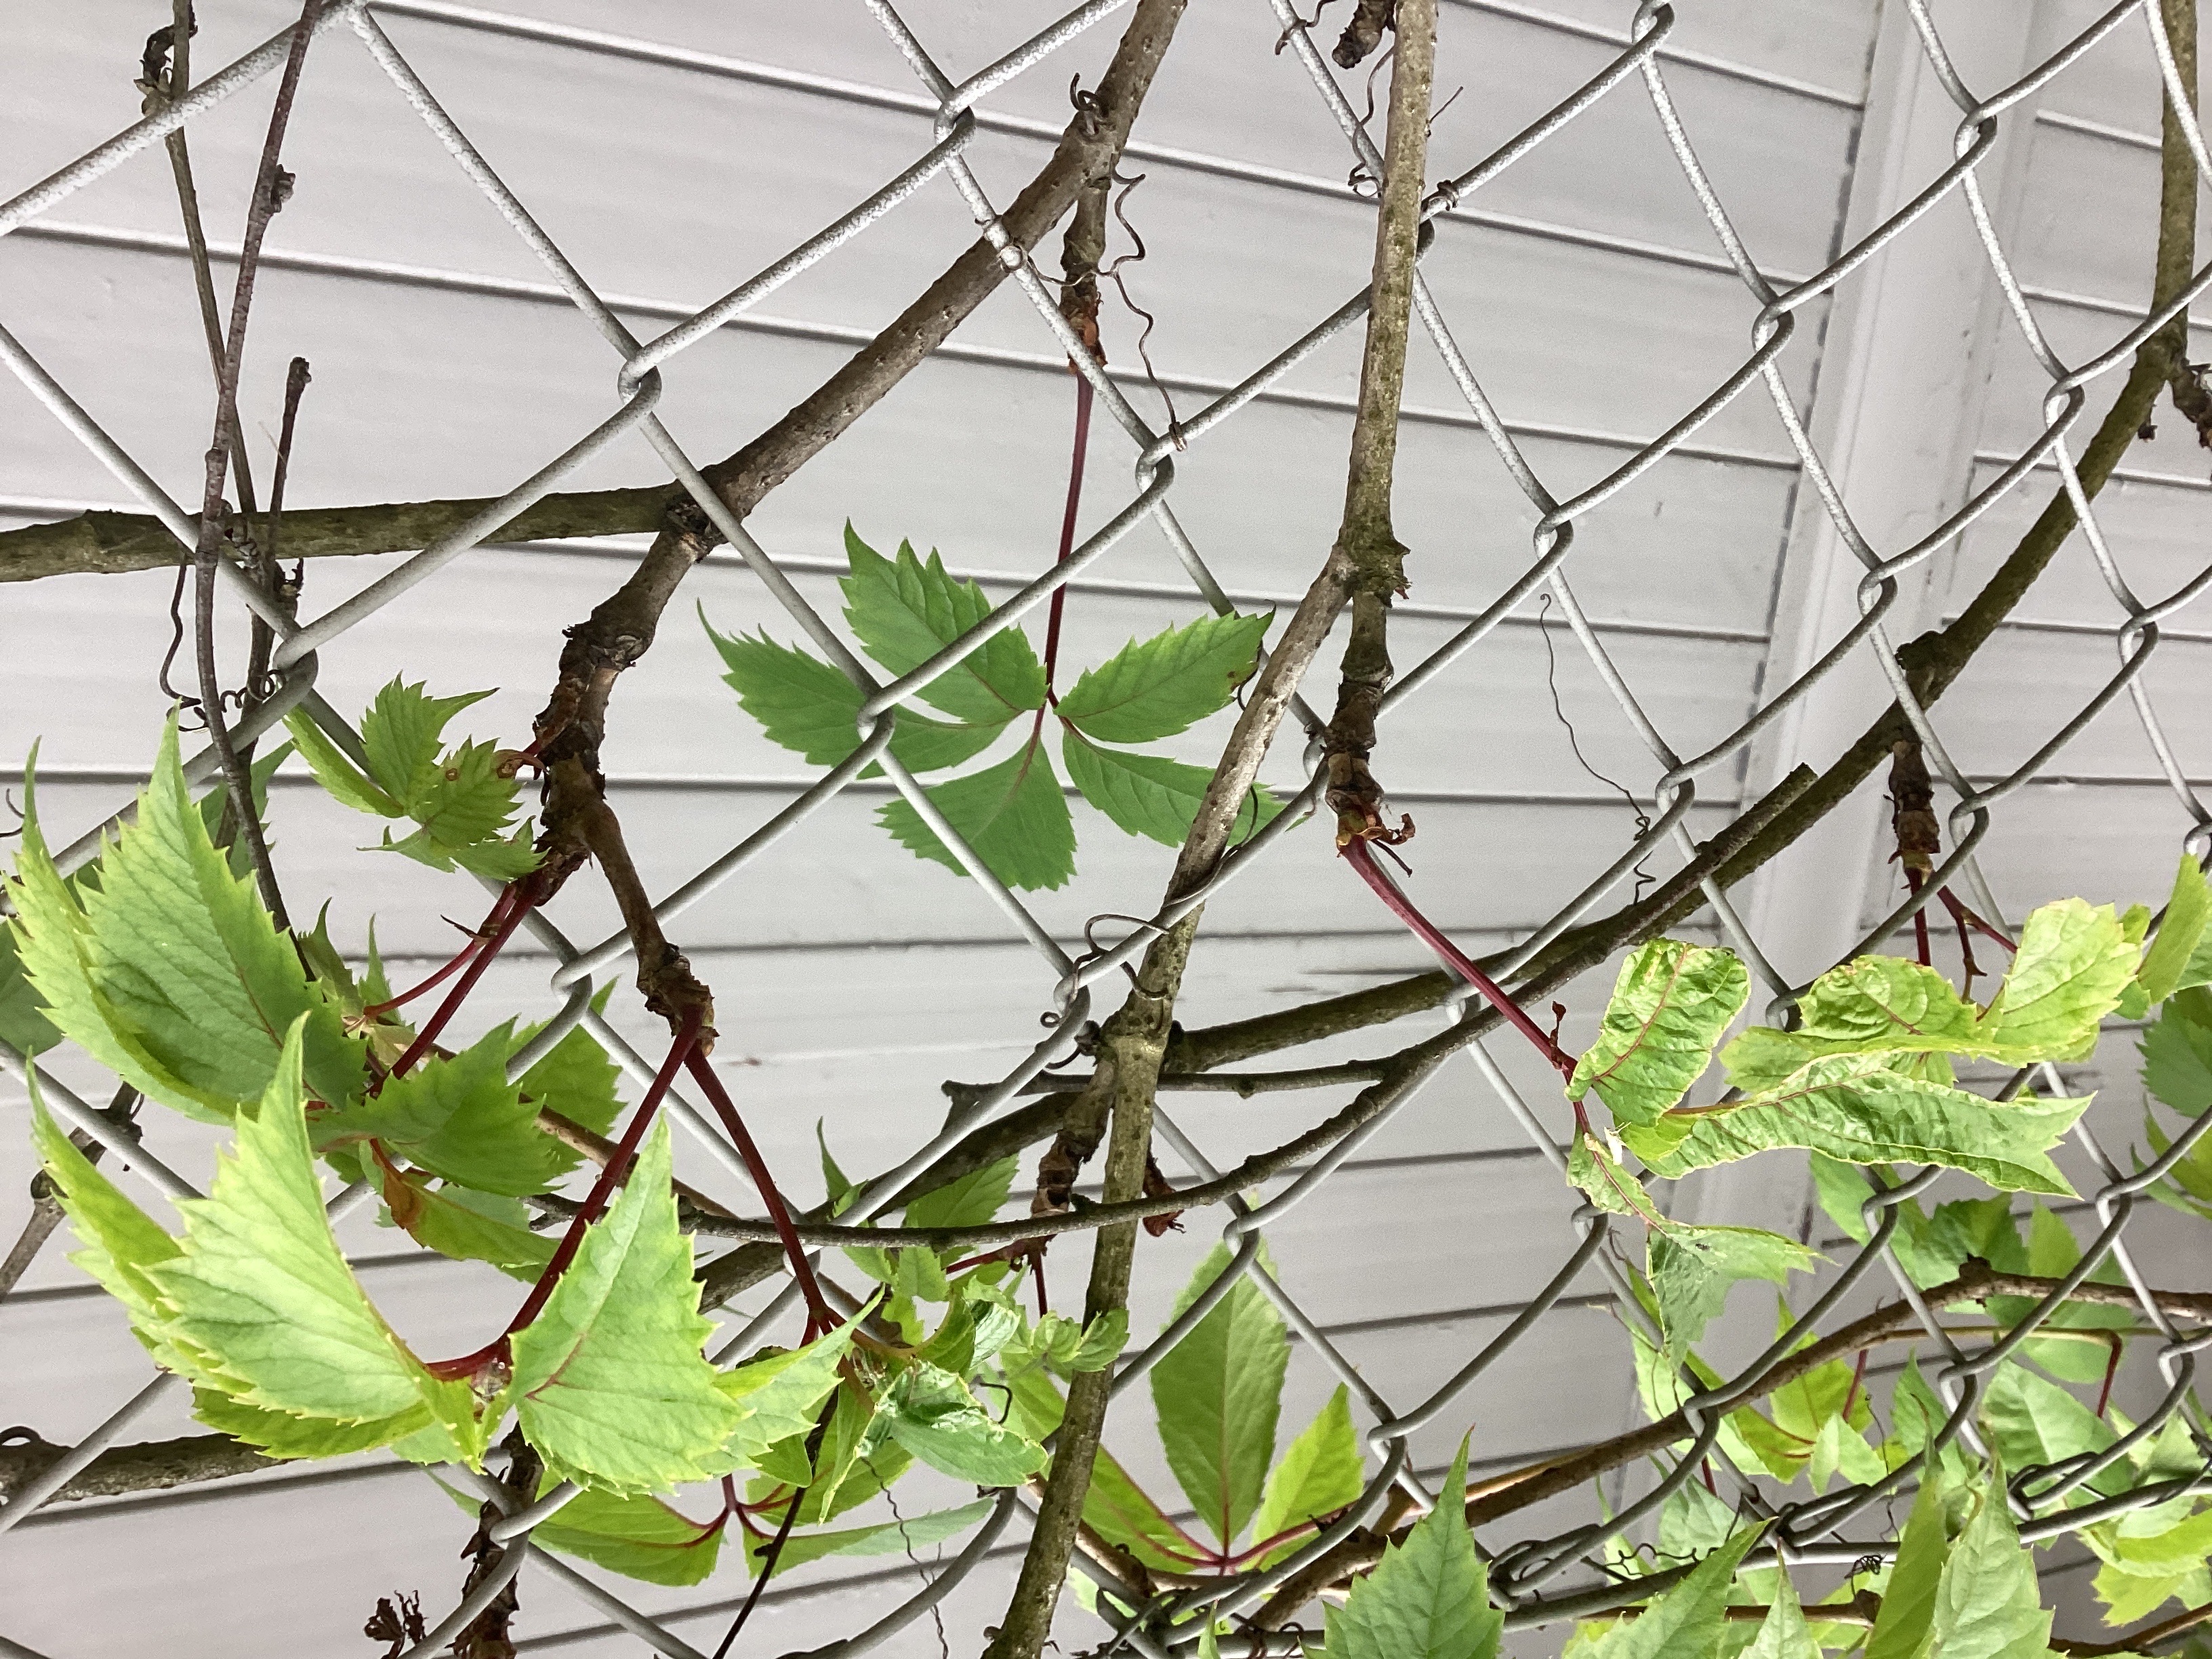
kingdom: Plantae
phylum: Tracheophyta
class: Magnoliopsida
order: Vitales
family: Vitaceae
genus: Parthenocissus
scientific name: Parthenocissus quinquefolia
